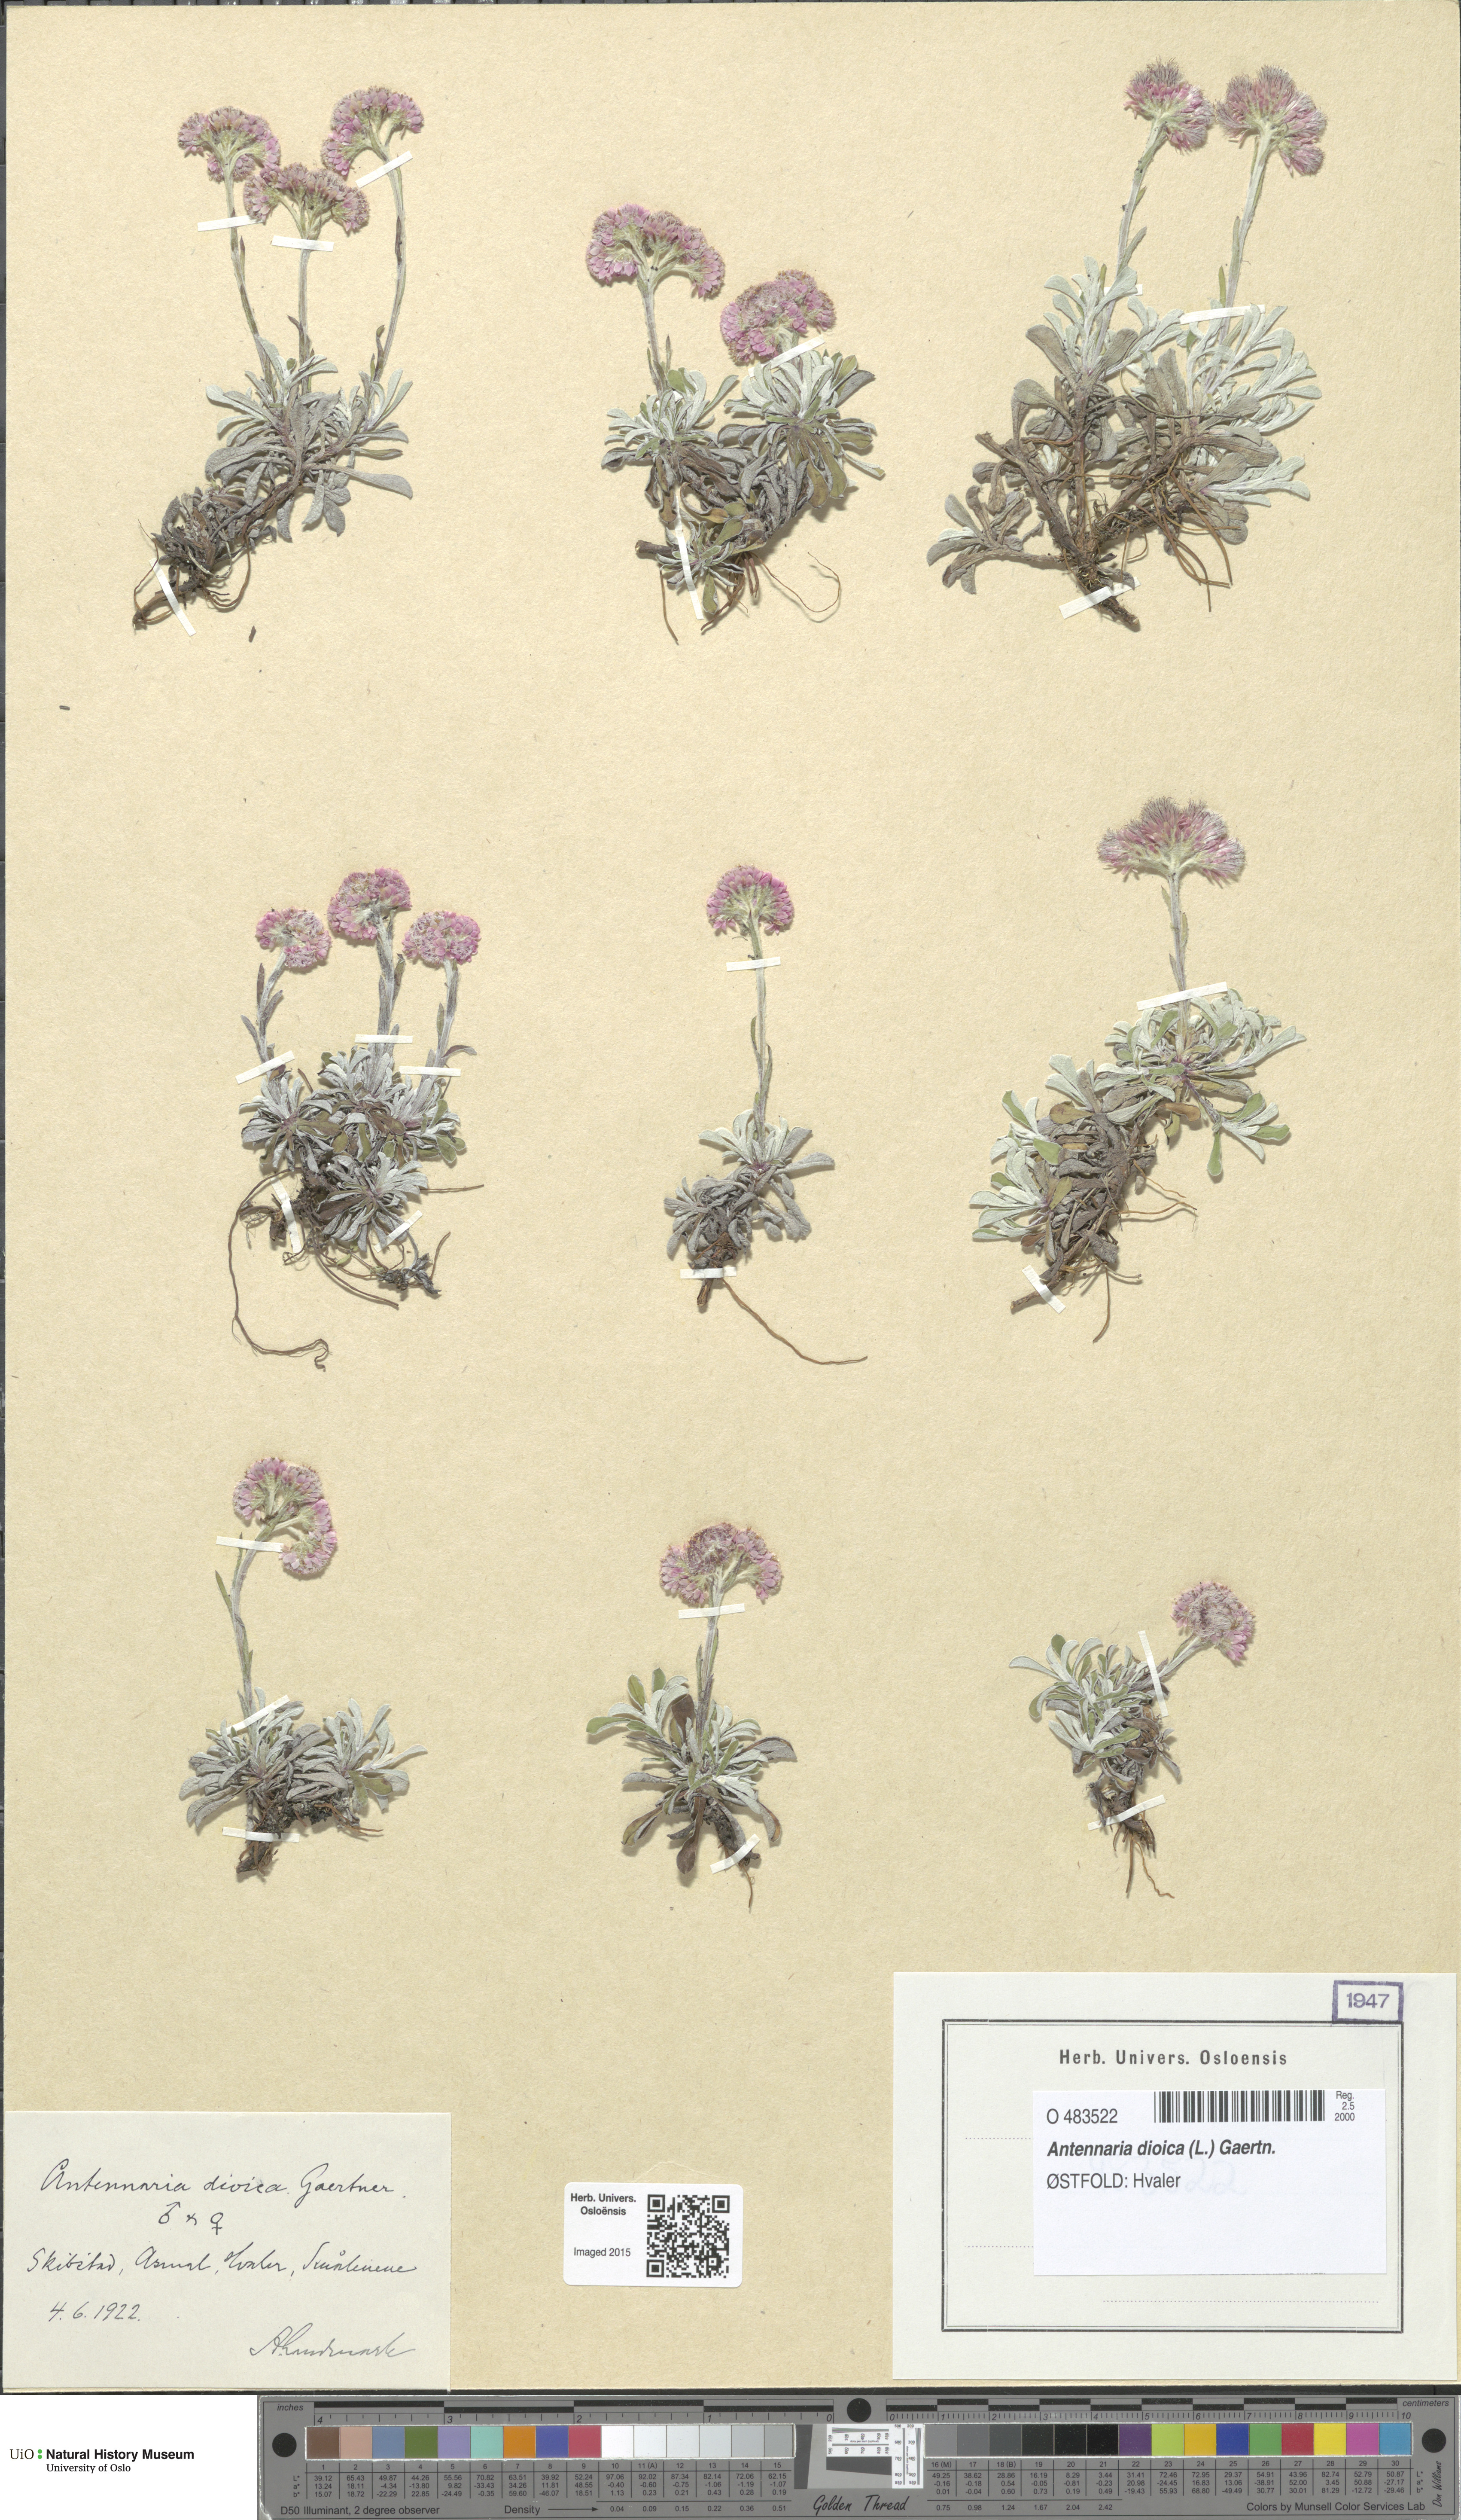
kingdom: Plantae
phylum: Tracheophyta
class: Magnoliopsida
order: Asterales
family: Asteraceae
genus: Antennaria
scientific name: Antennaria dioica
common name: Mountain everlasting
